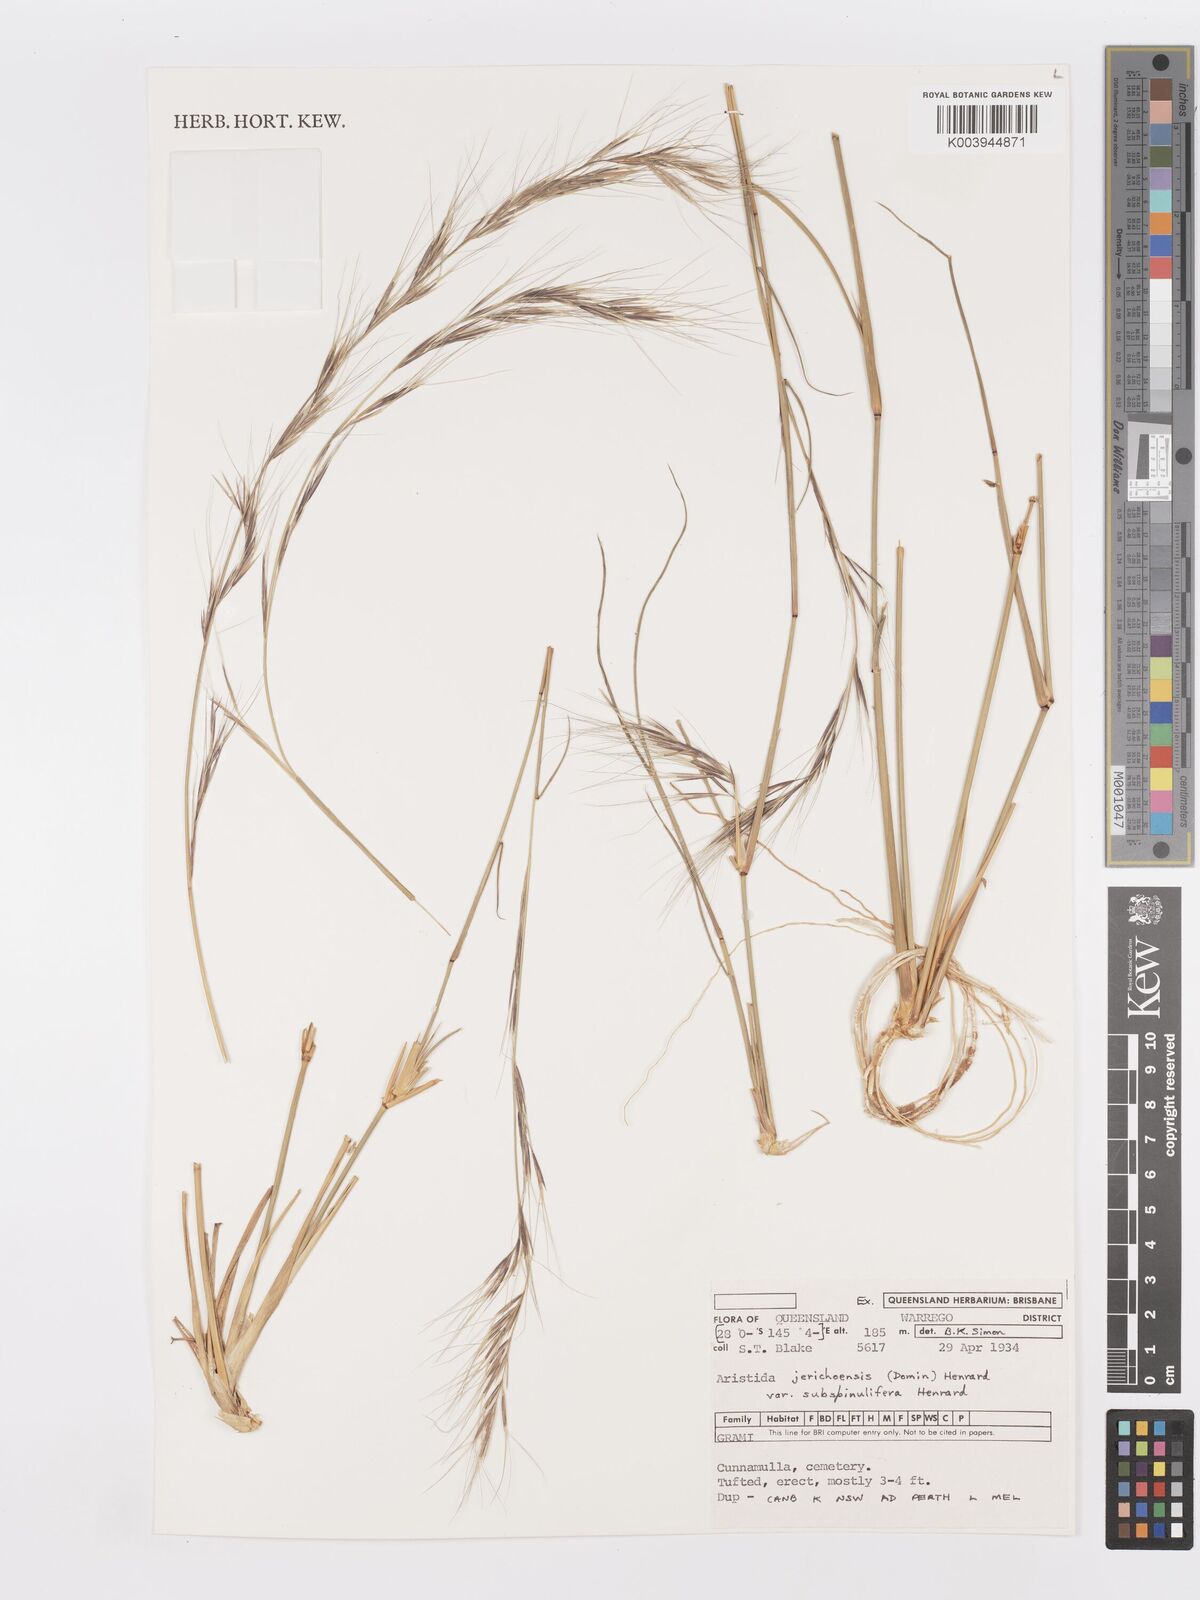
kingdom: Plantae
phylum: Tracheophyta
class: Liliopsida
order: Poales
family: Poaceae
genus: Aristida
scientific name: Aristida jerichoensis
